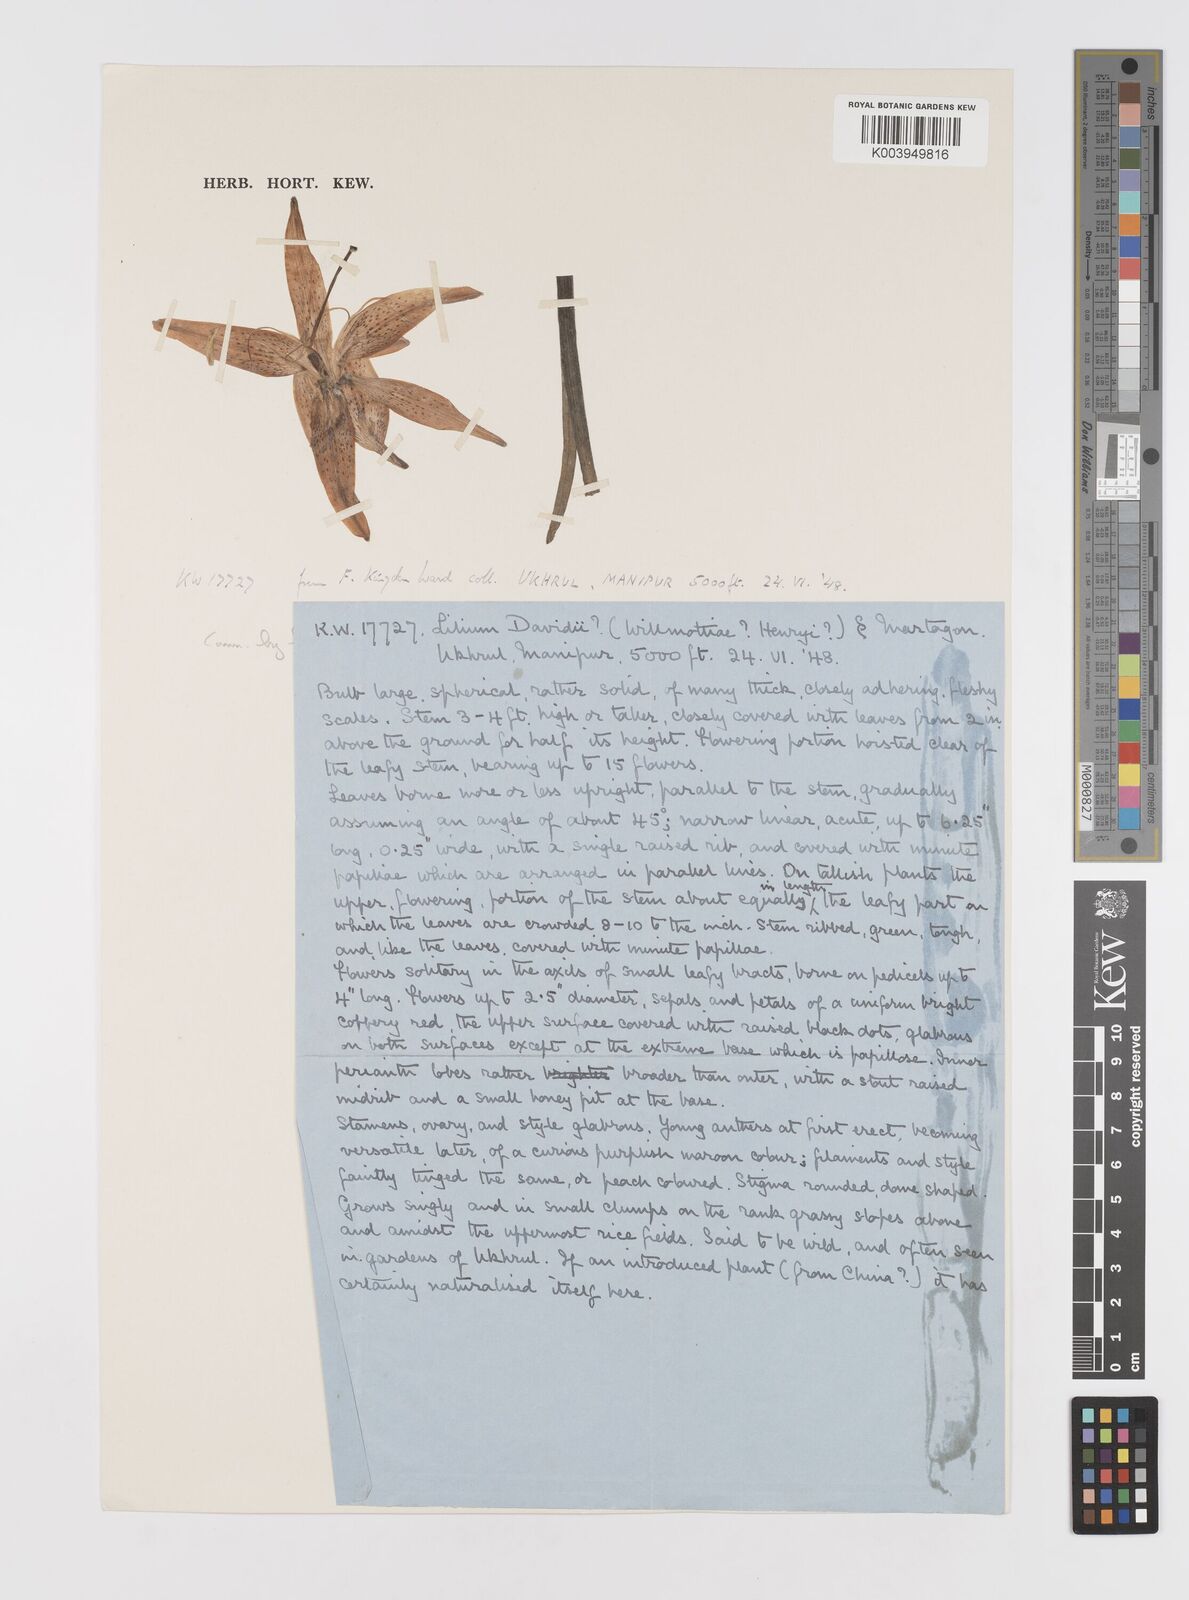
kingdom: Plantae
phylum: Tracheophyta
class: Liliopsida
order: Liliales
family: Liliaceae
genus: Lilium
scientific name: Lilium
